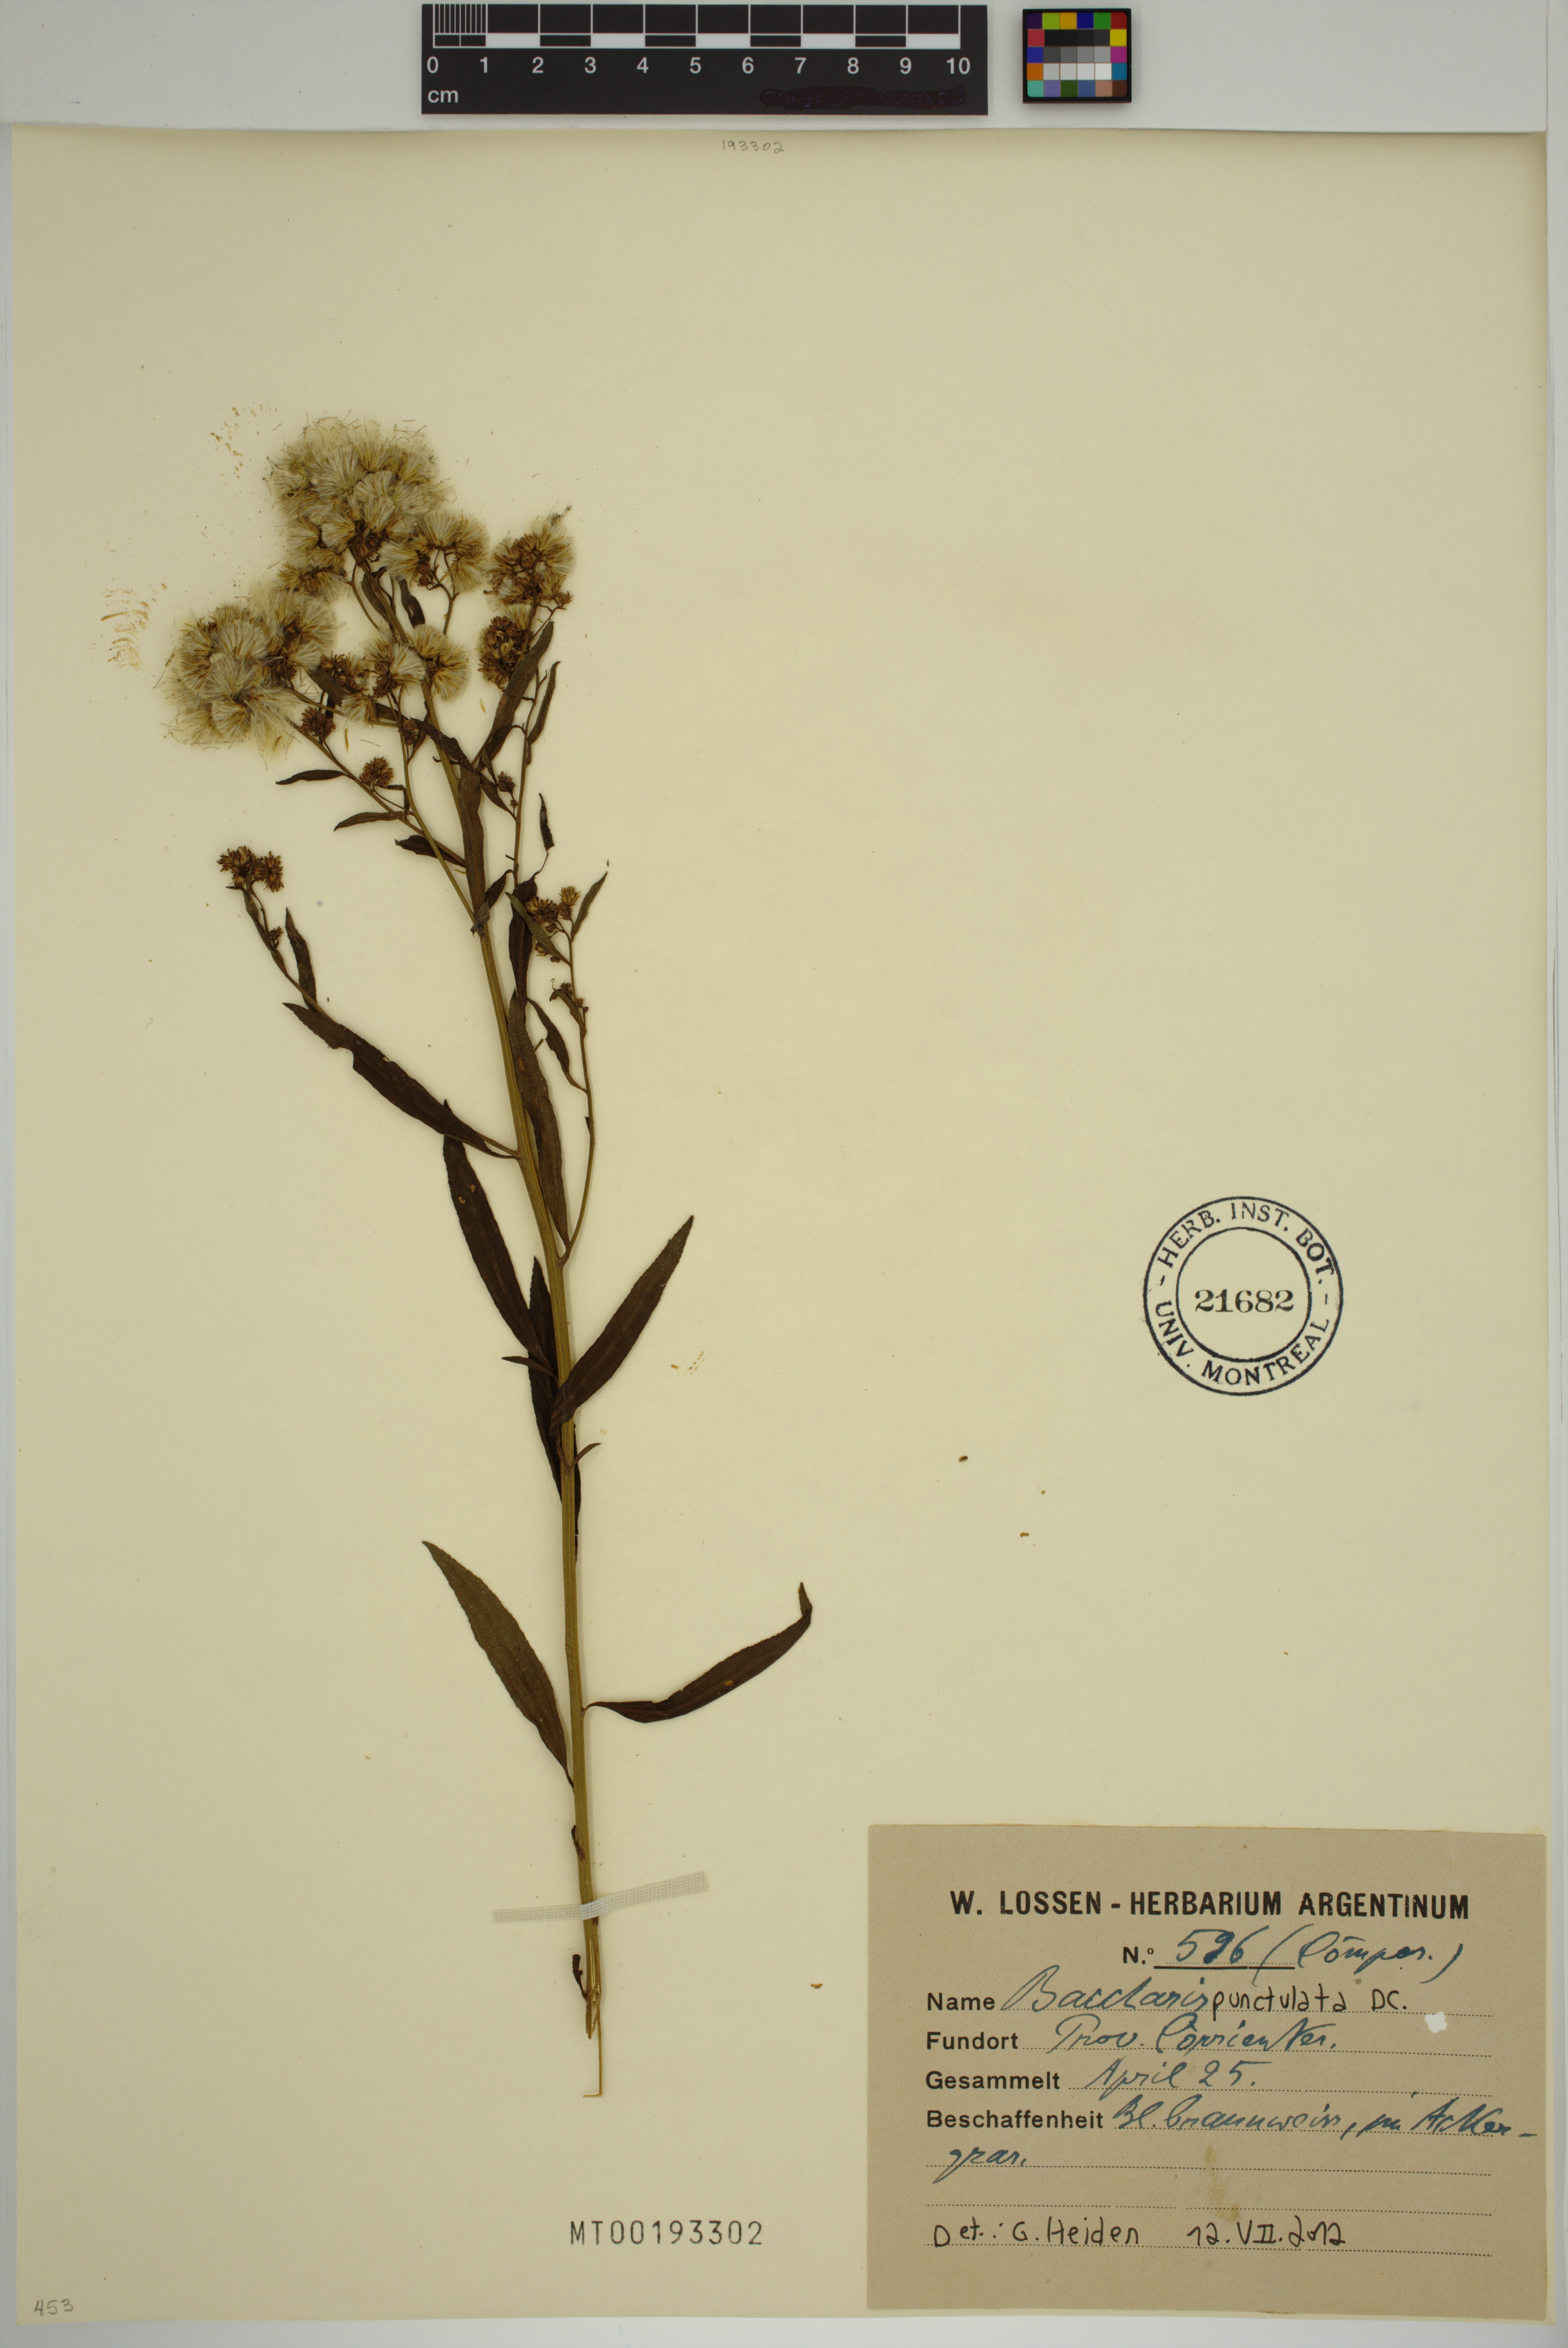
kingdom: Plantae
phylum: Tracheophyta
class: Magnoliopsida
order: Asterales
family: Asteraceae
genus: Baccharis
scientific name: Baccharis punctulata
